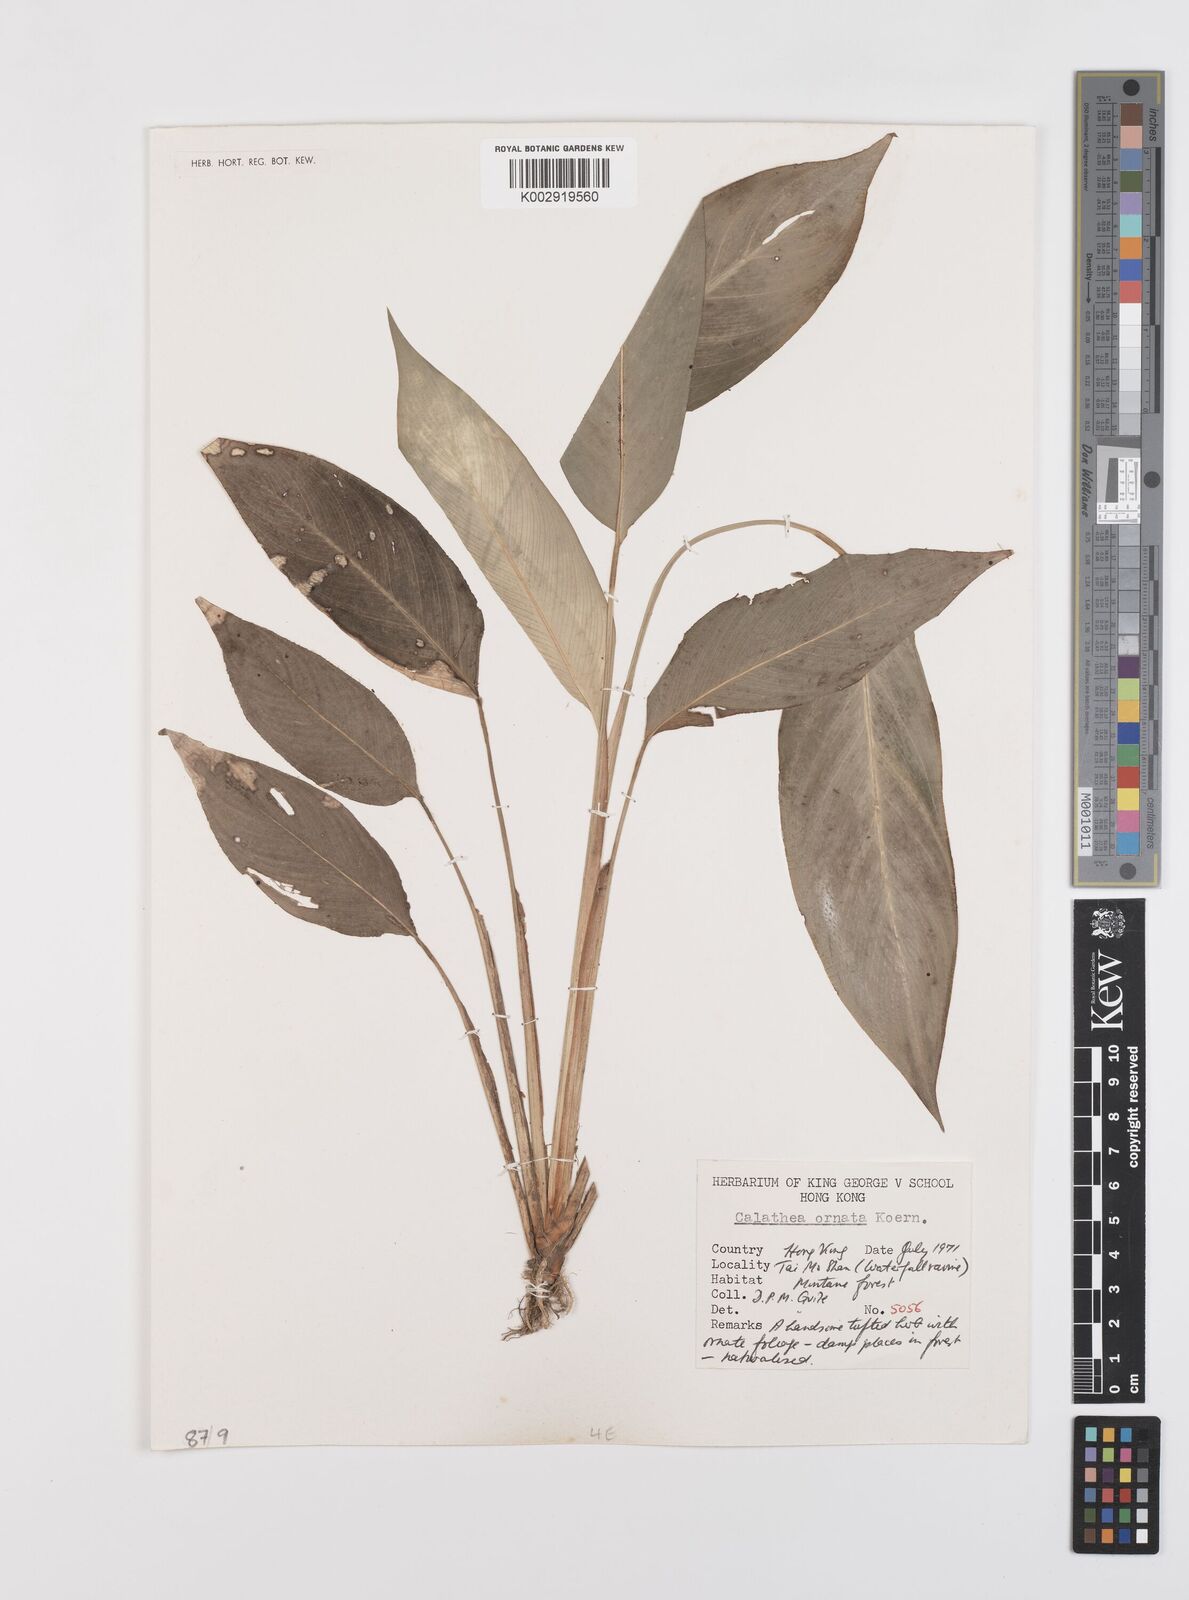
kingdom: Plantae
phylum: Tracheophyta
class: Liliopsida
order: Zingiberales
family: Marantaceae
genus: Goeppertia
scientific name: Goeppertia ornata
